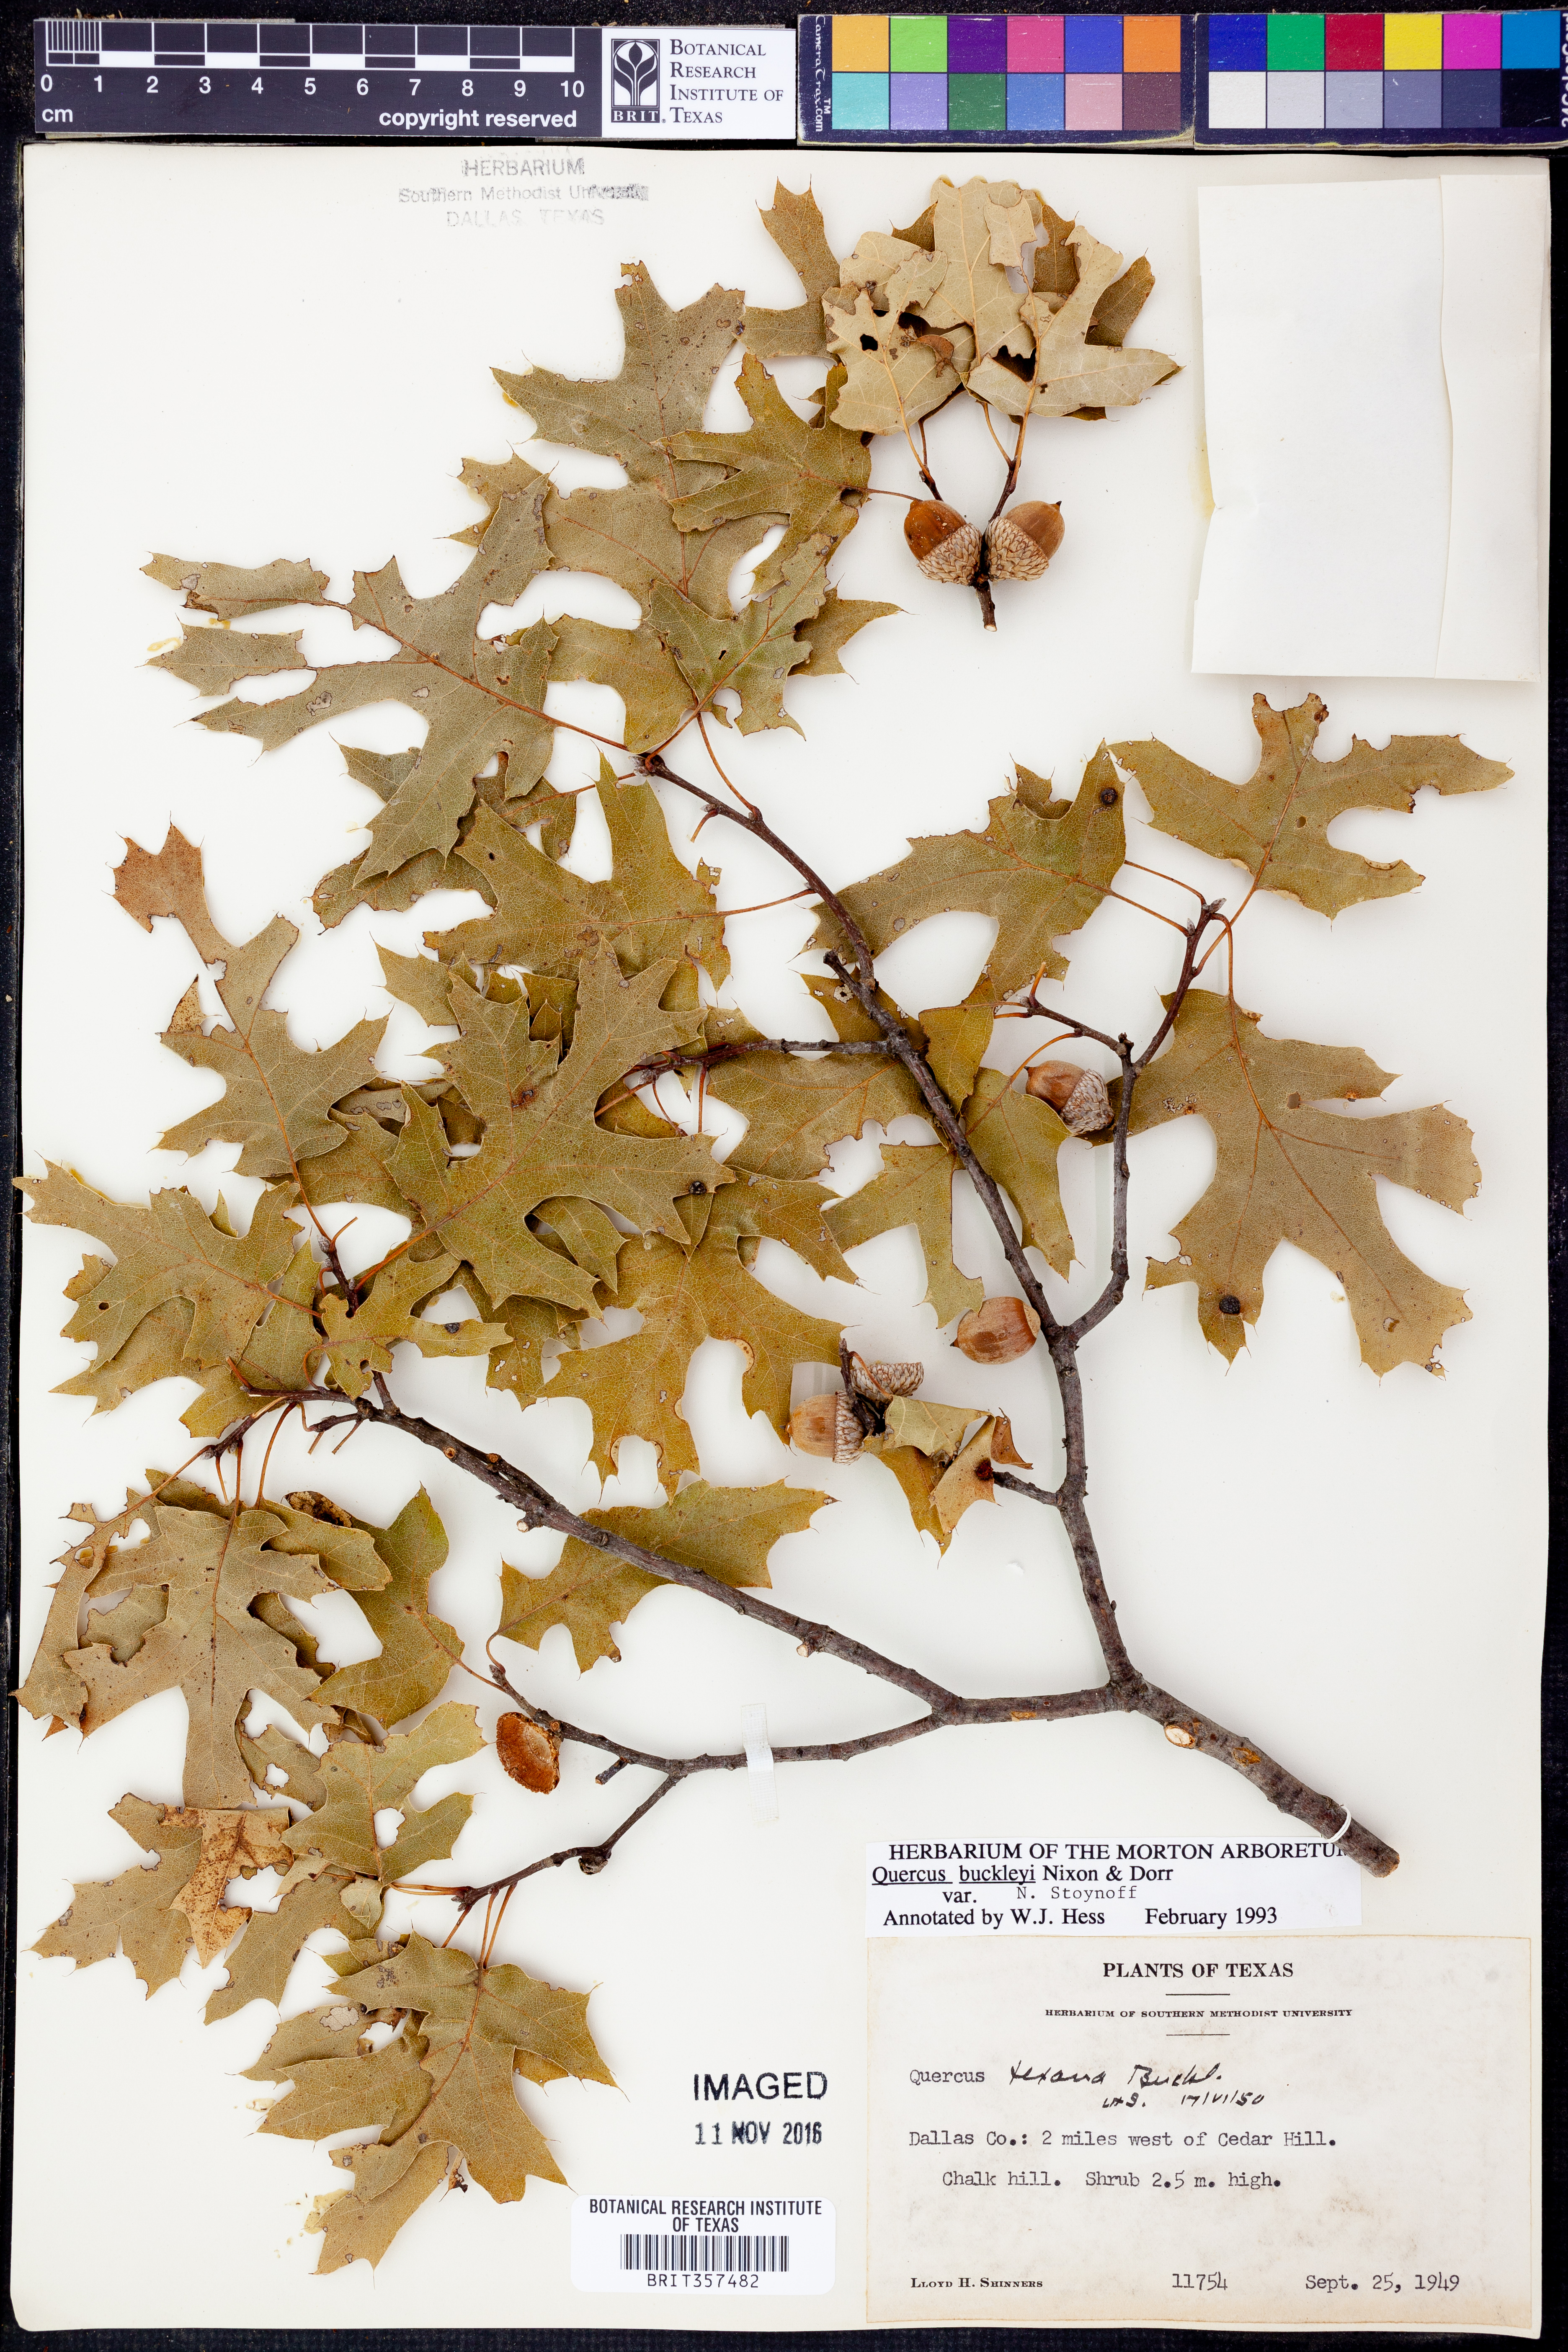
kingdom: Plantae
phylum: Tracheophyta
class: Magnoliopsida
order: Fagales
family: Fagaceae
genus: Quercus
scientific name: Quercus buckleyi
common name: Buckley oak
